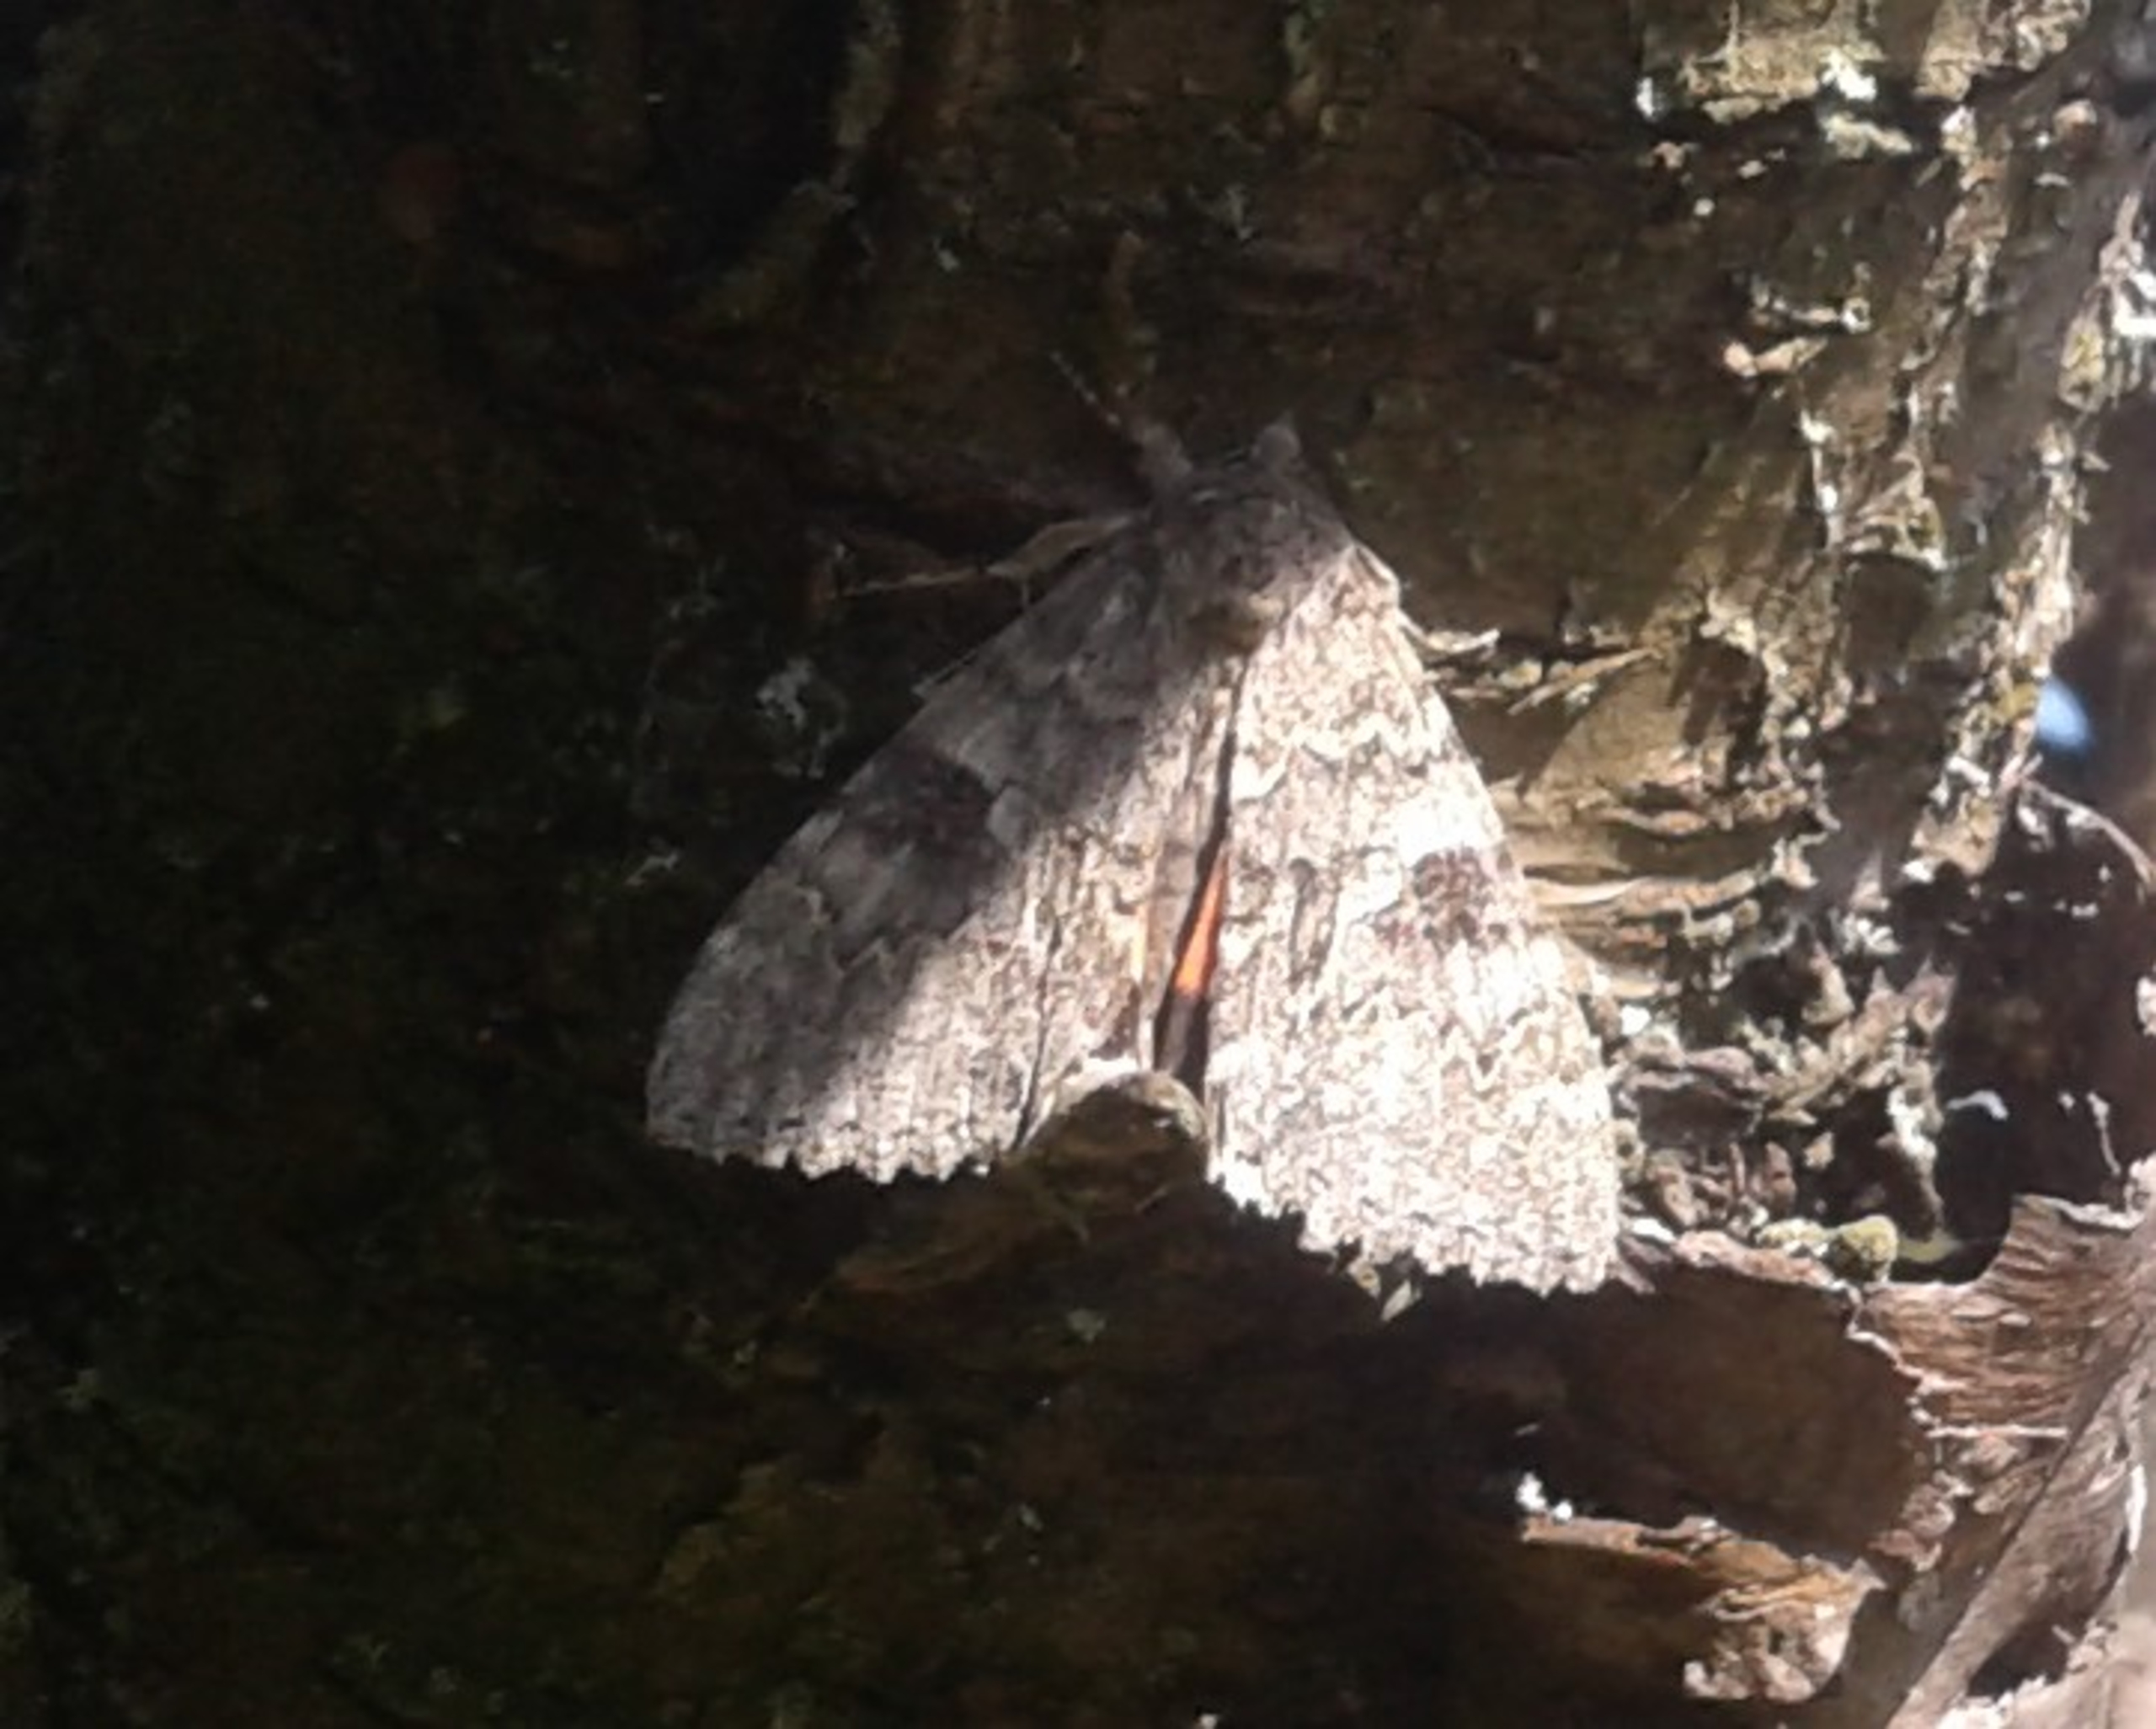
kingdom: Animalia
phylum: Arthropoda
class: Insecta
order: Lepidoptera
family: Erebidae
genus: Catocala
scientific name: Catocala nupta
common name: Rødt ordensbånd
